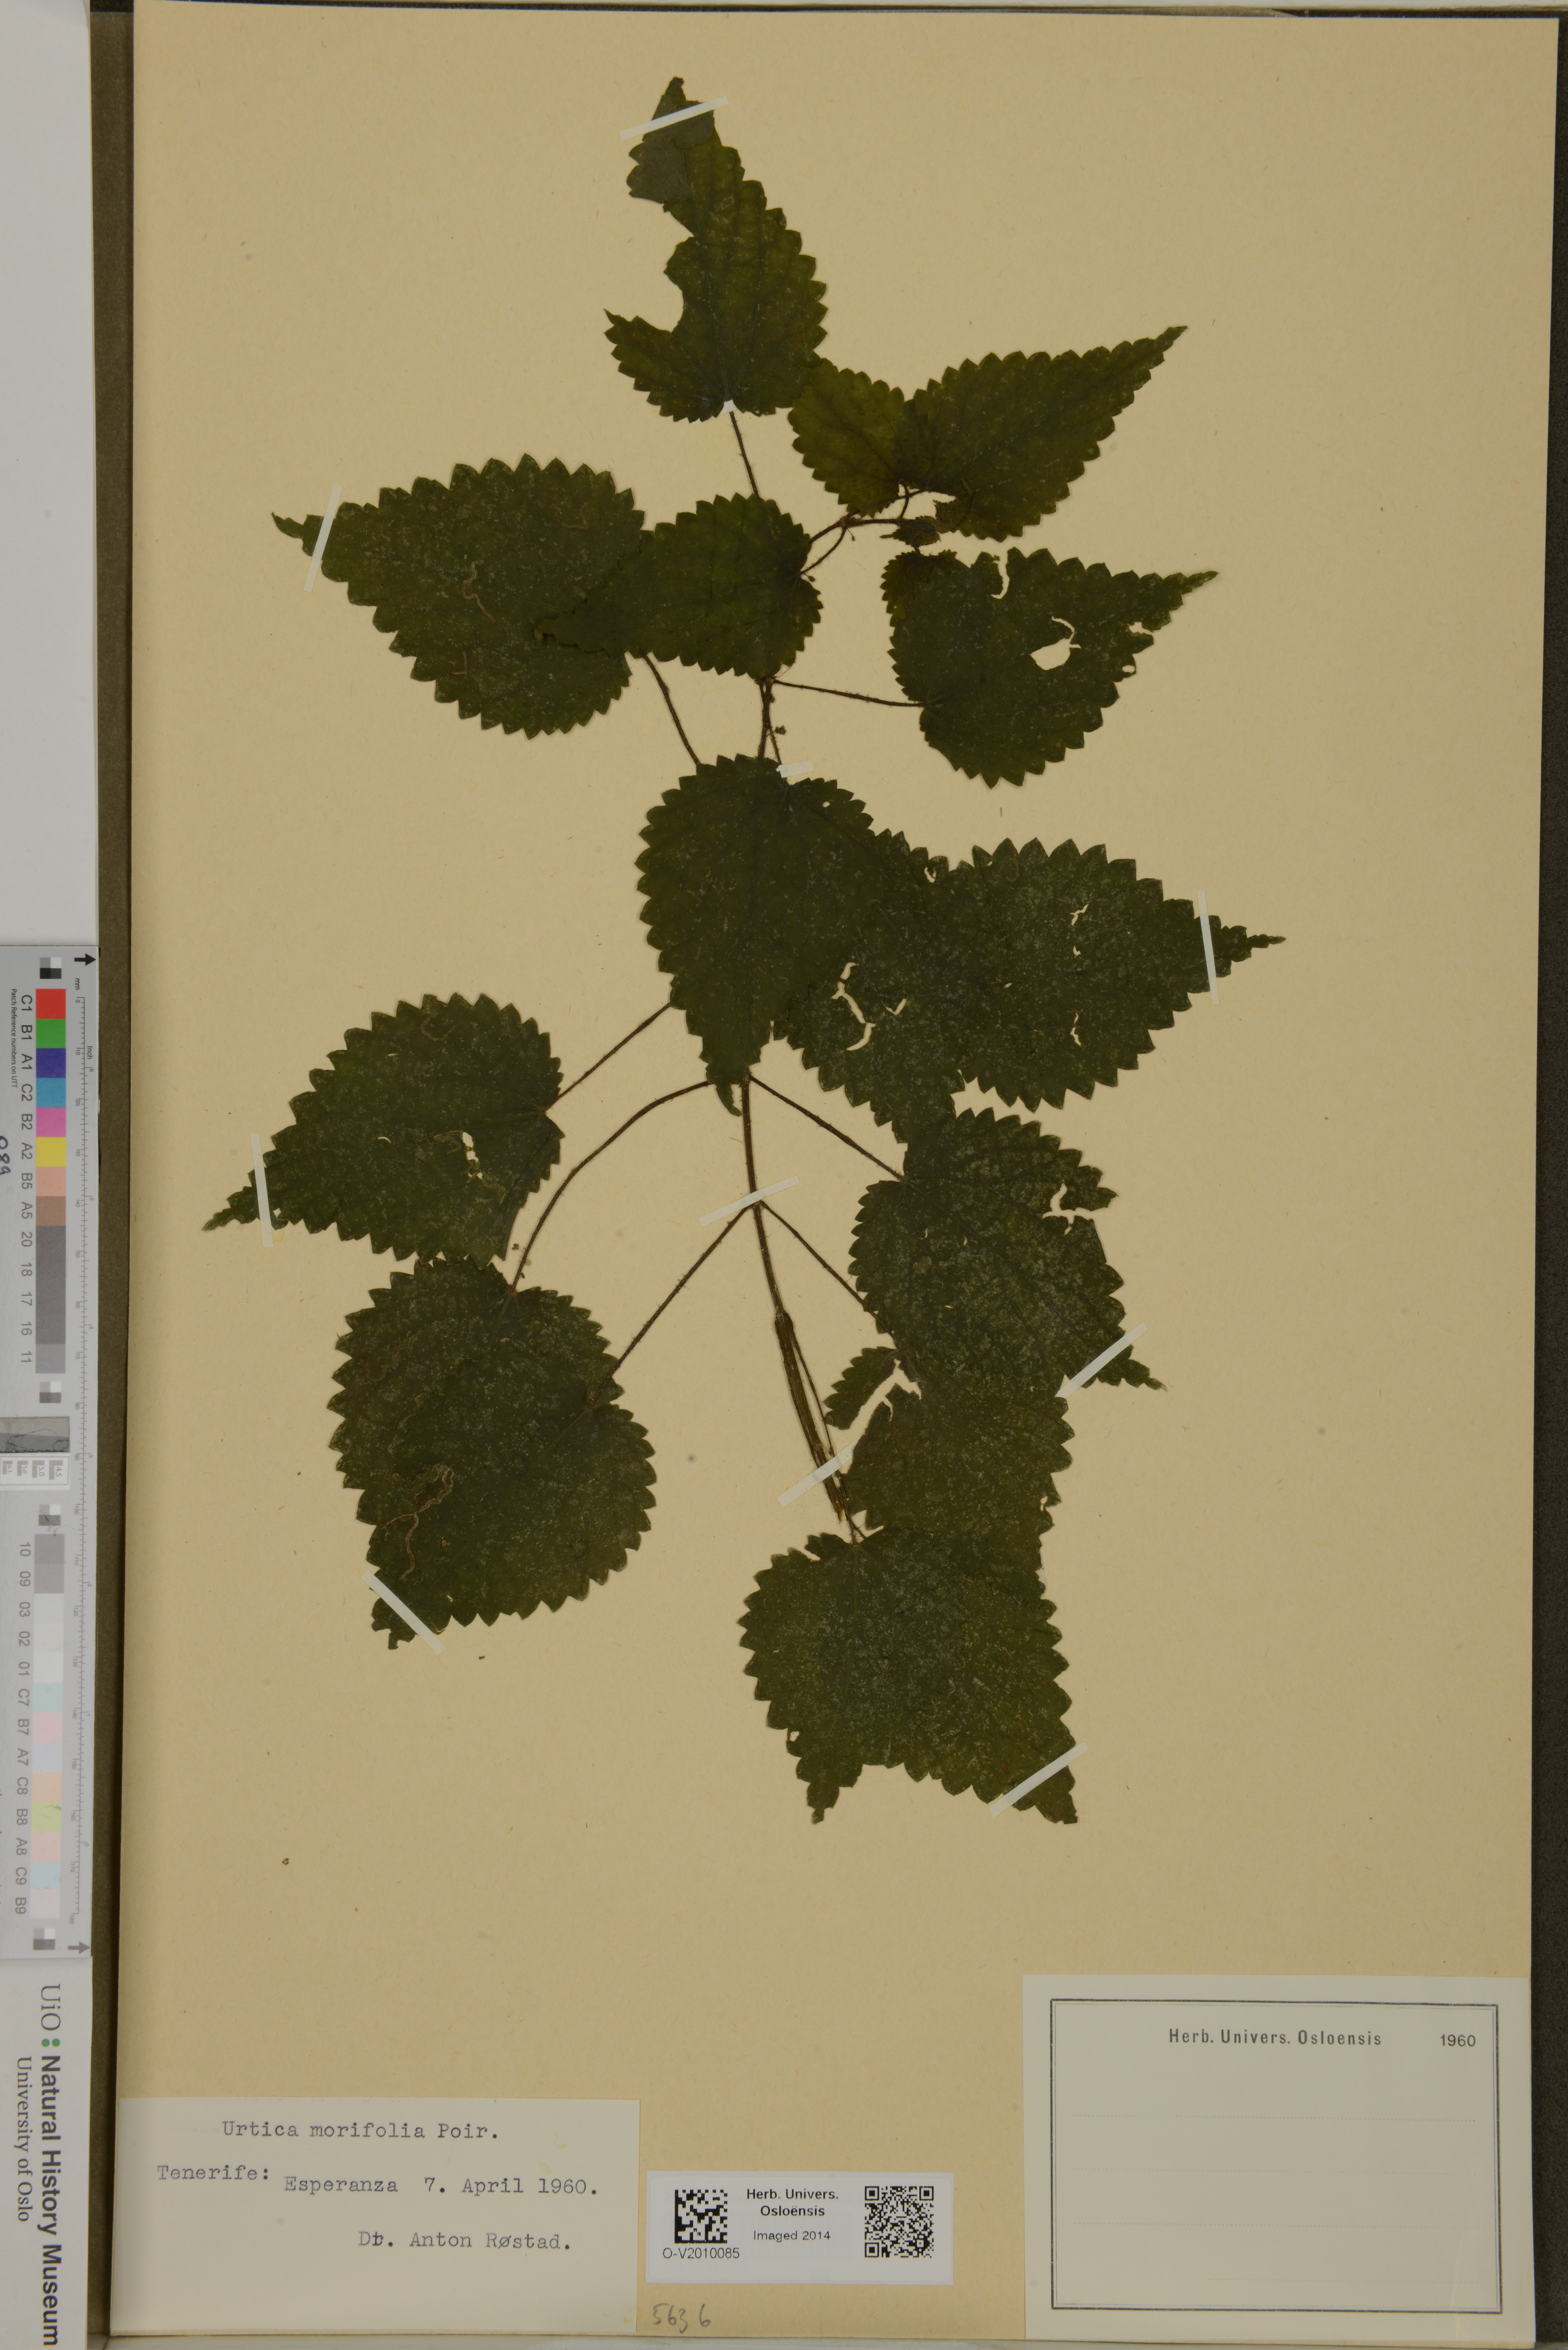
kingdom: Plantae
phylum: Tracheophyta
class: Magnoliopsida
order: Rosales
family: Urticaceae
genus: Urtica
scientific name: Urtica morifolia
